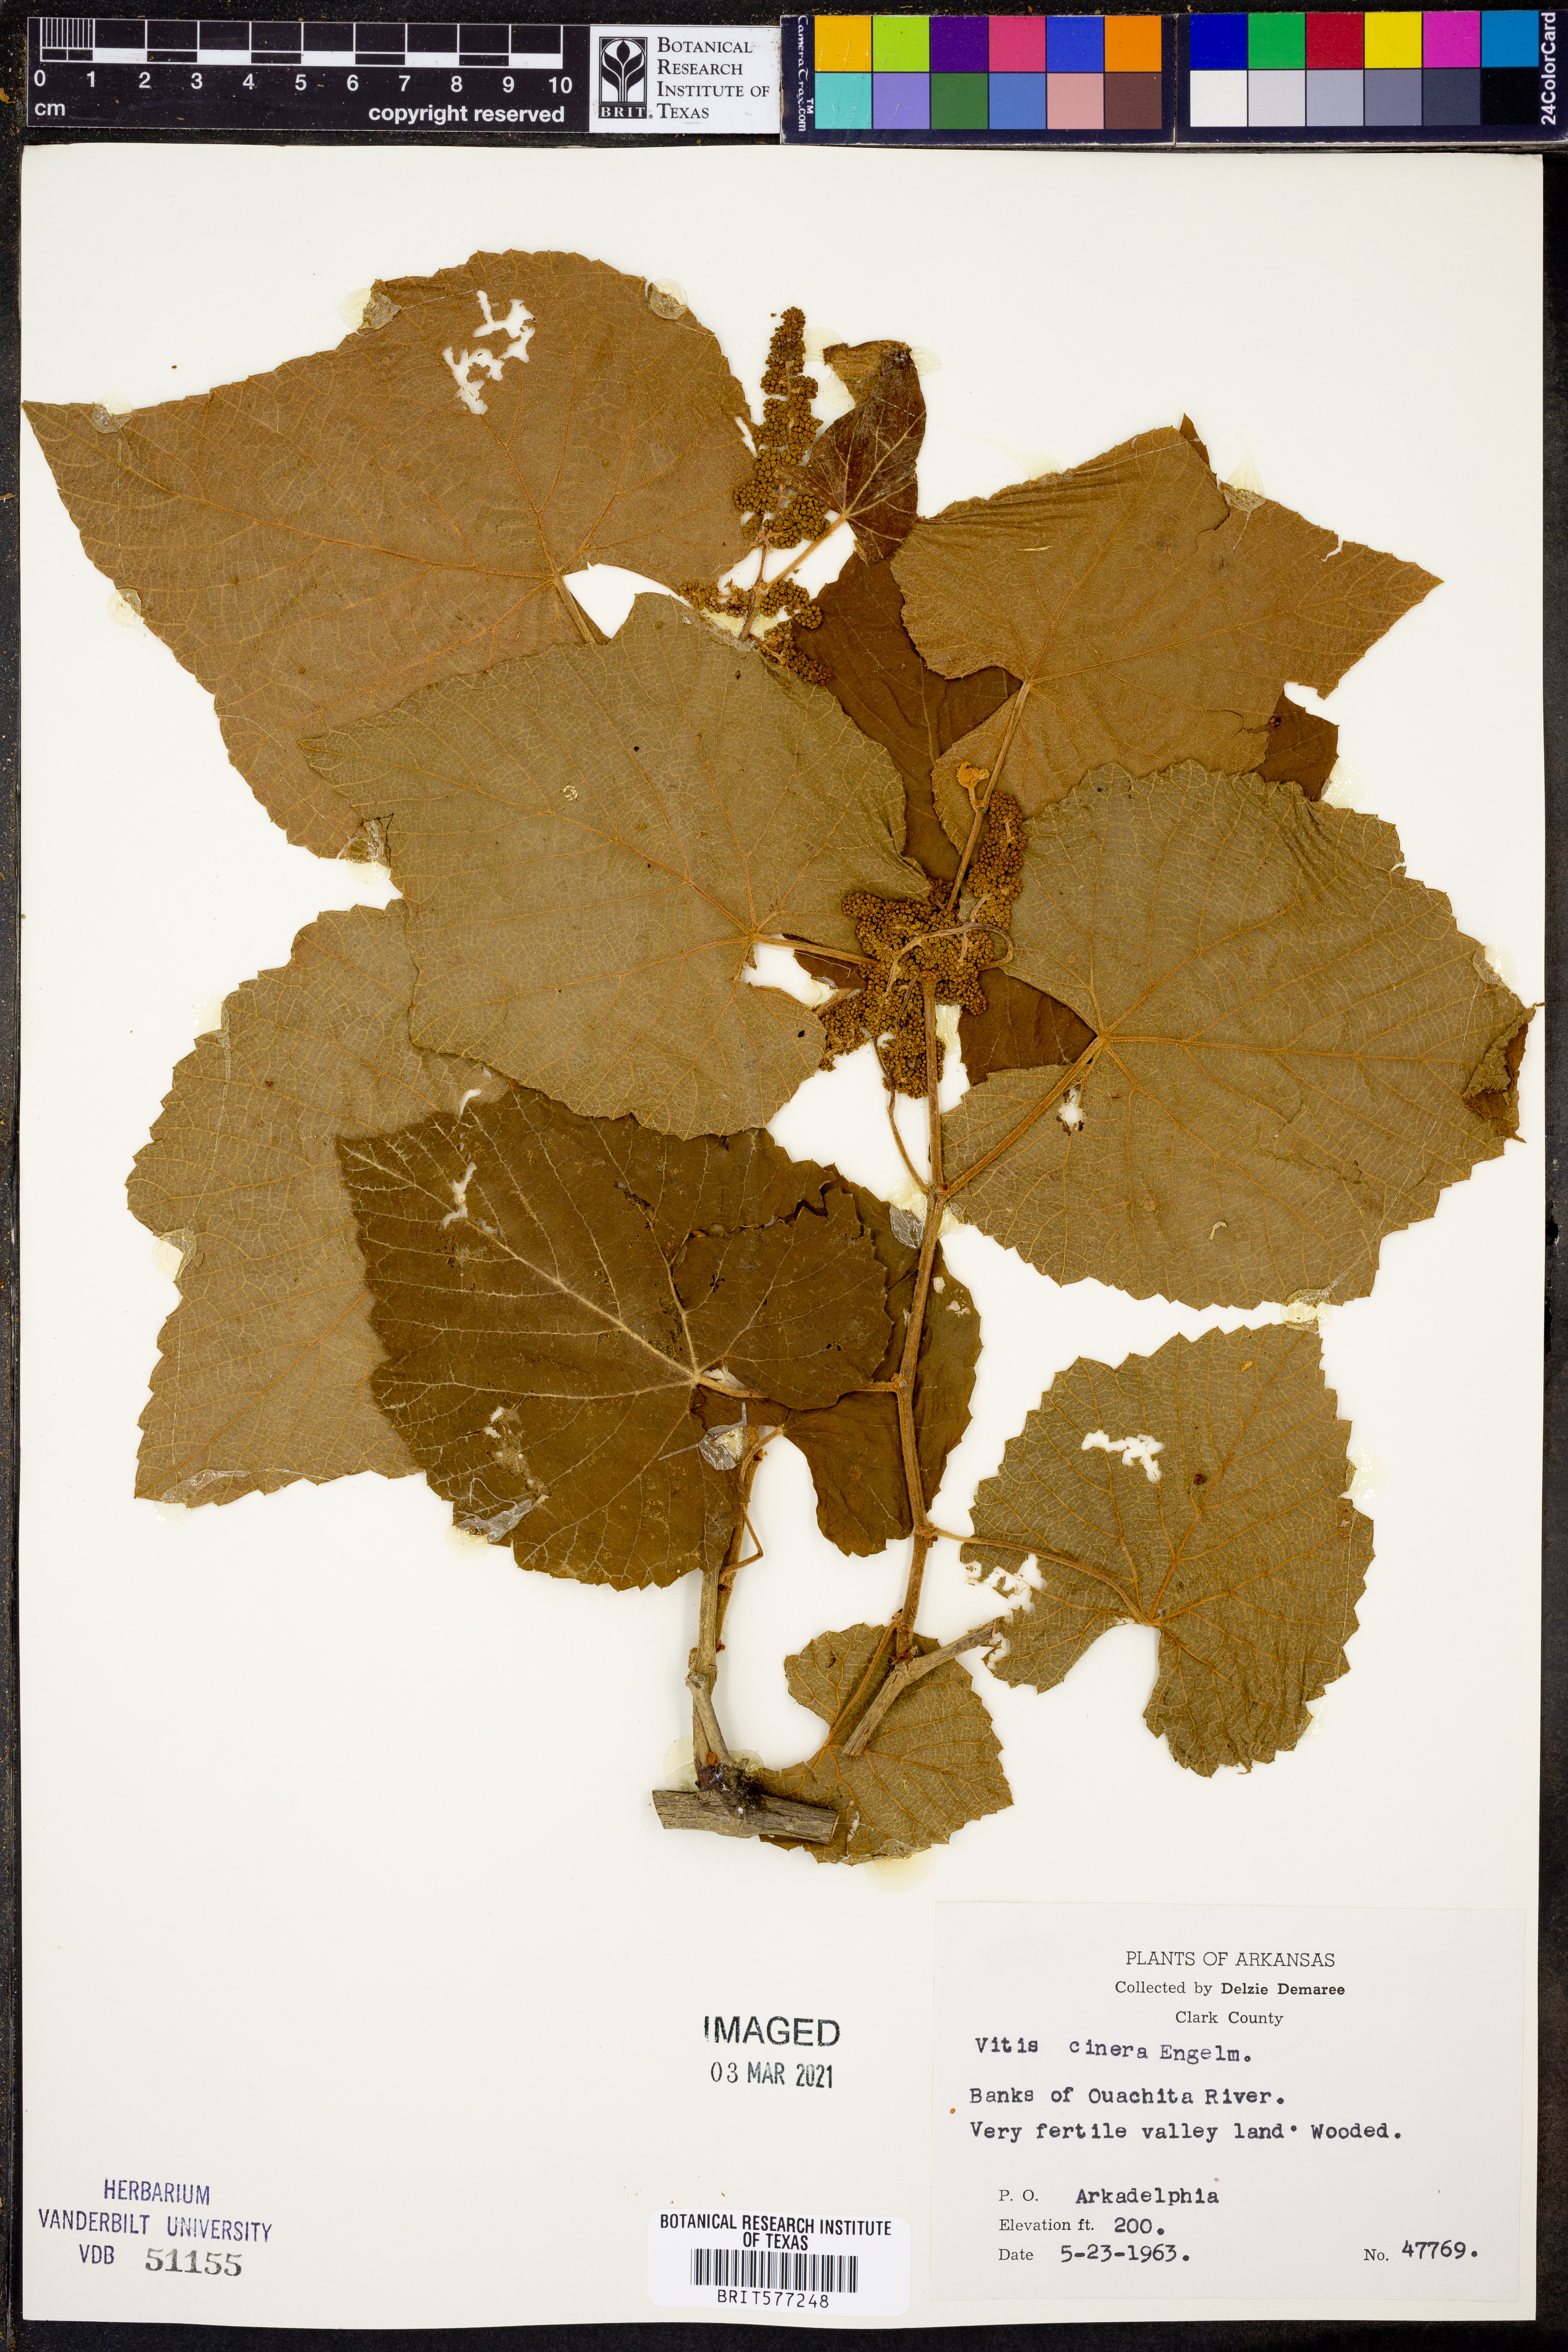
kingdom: Plantae
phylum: Tracheophyta
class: Magnoliopsida
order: Vitales
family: Vitaceae
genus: Vitis
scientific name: Vitis cinerea
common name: Ashy grape
